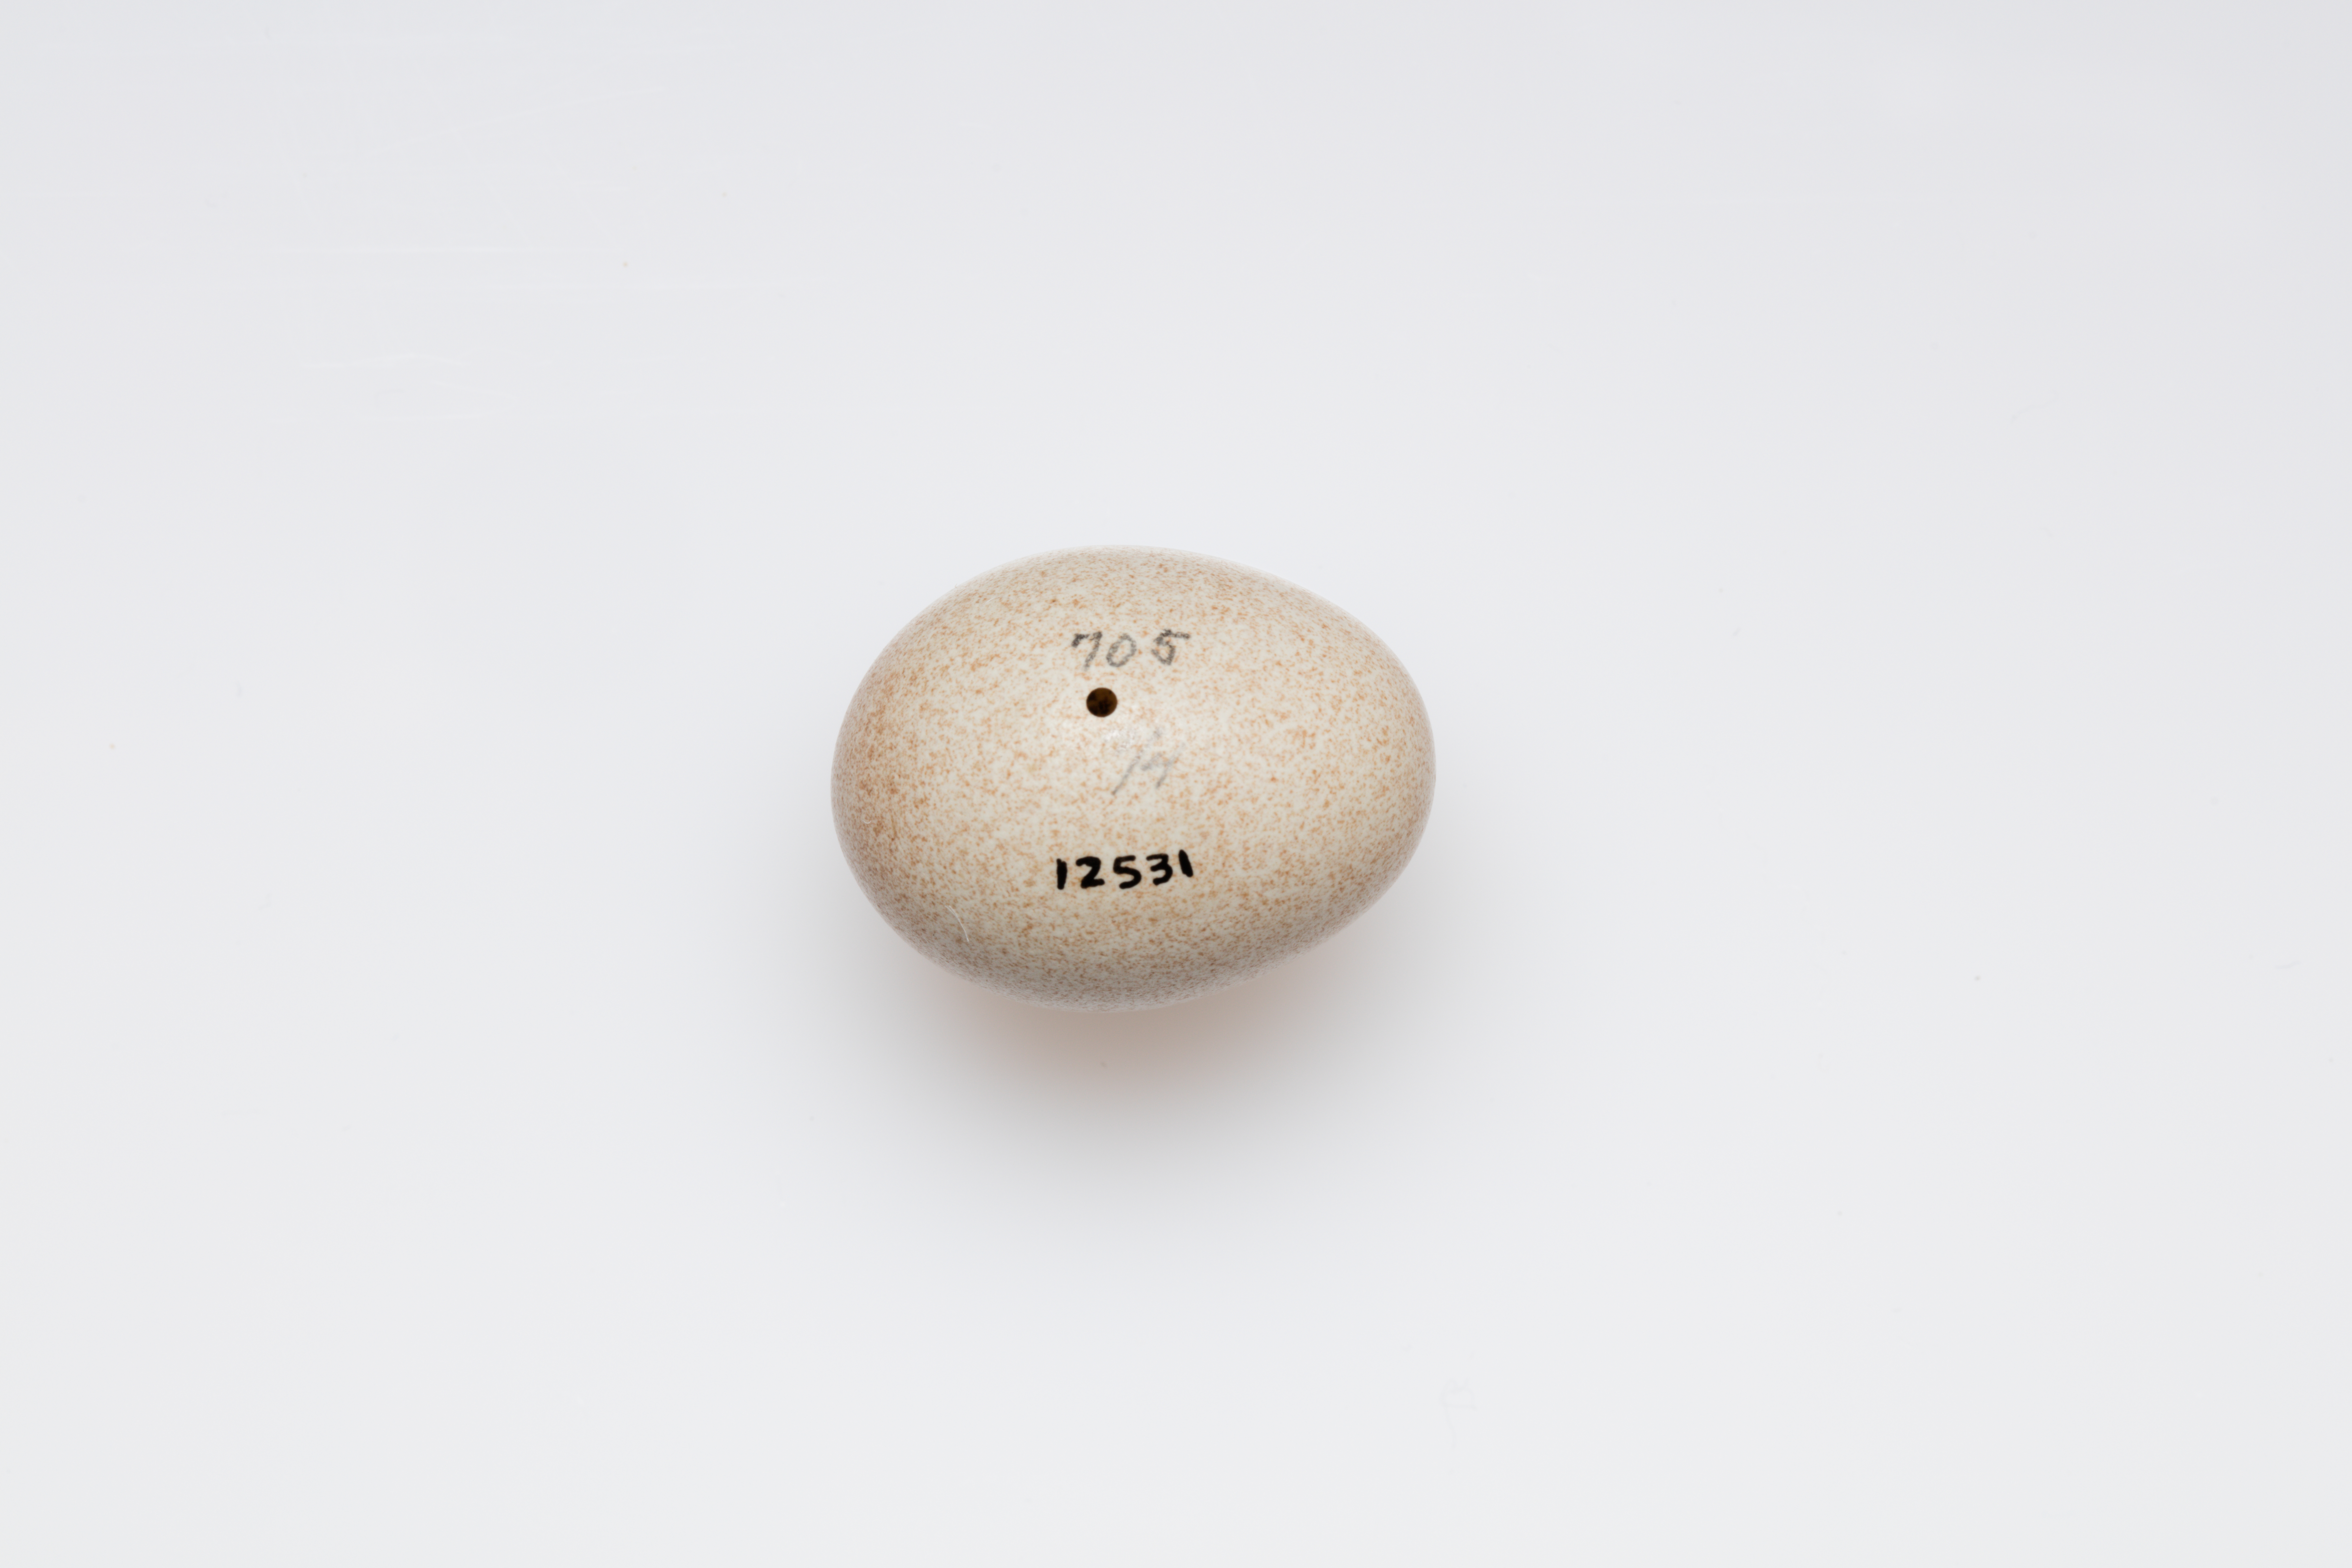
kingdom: Animalia
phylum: Chordata
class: Aves
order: Passeriformes
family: Mimidae
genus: Toxostoma
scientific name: Toxostoma rufum
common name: Brown thrasher
